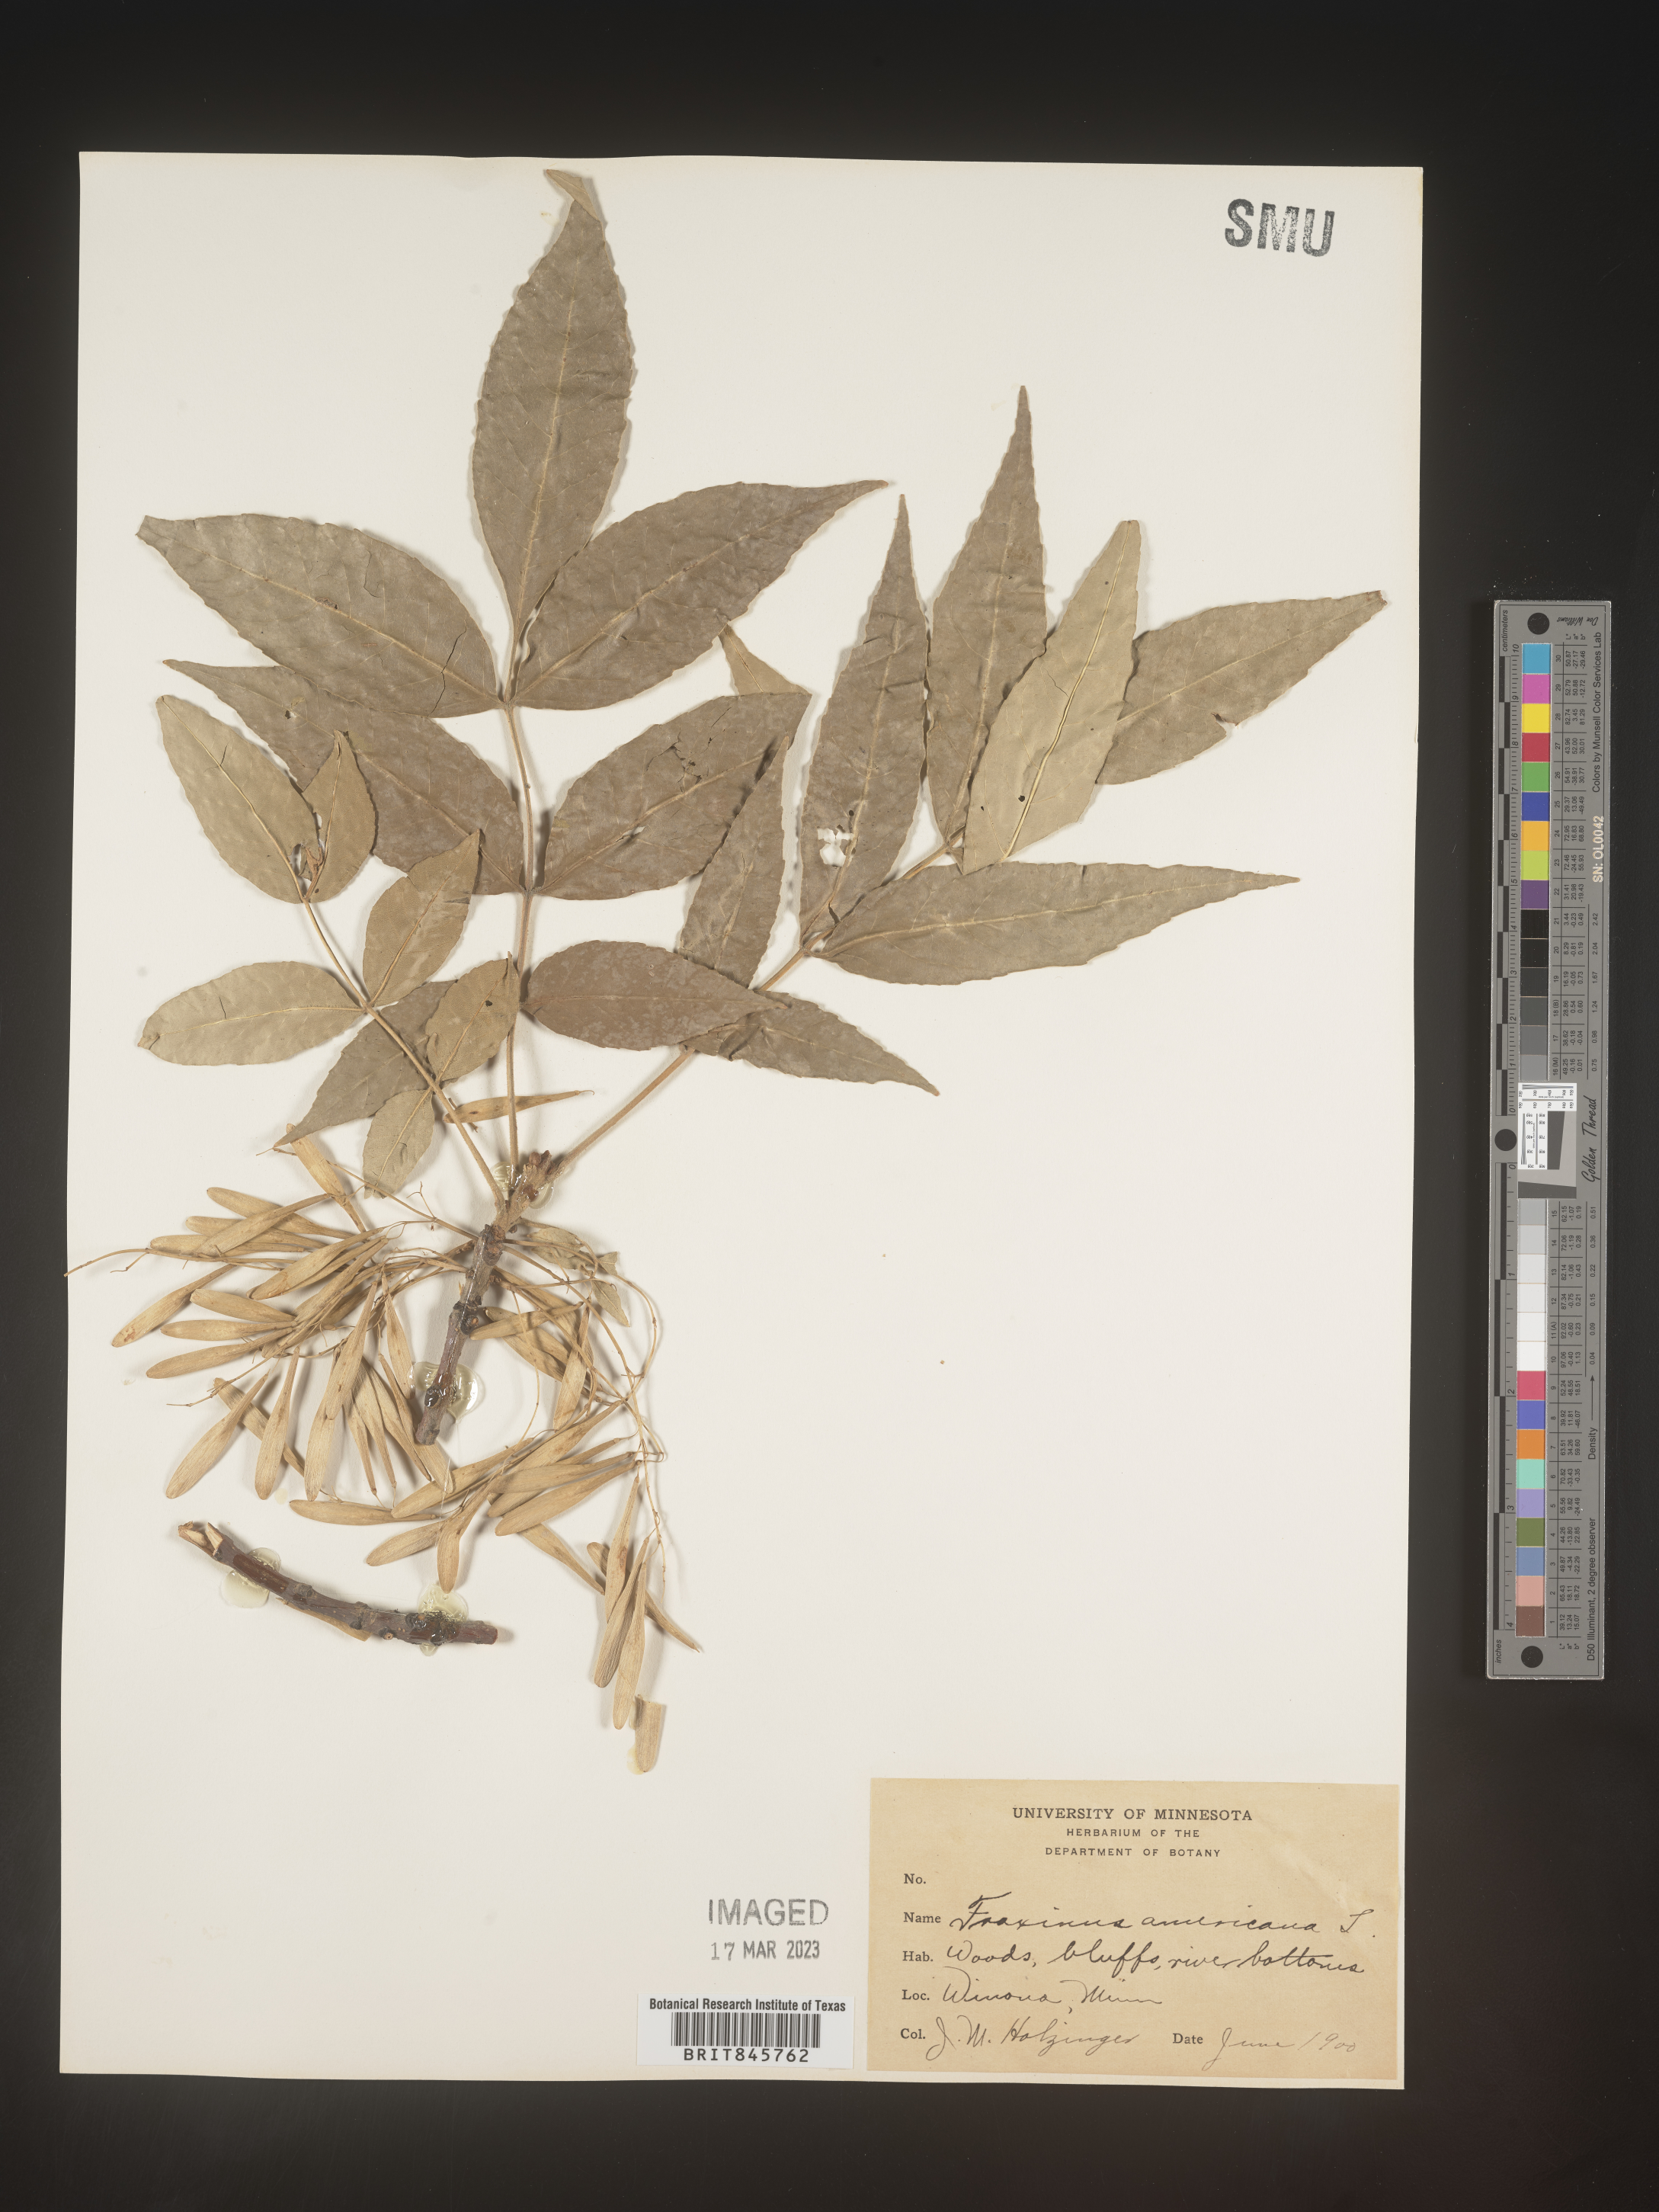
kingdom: Plantae
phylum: Tracheophyta
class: Magnoliopsida
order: Lamiales
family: Oleaceae
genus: Fraxinus
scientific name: Fraxinus americana
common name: White ash
